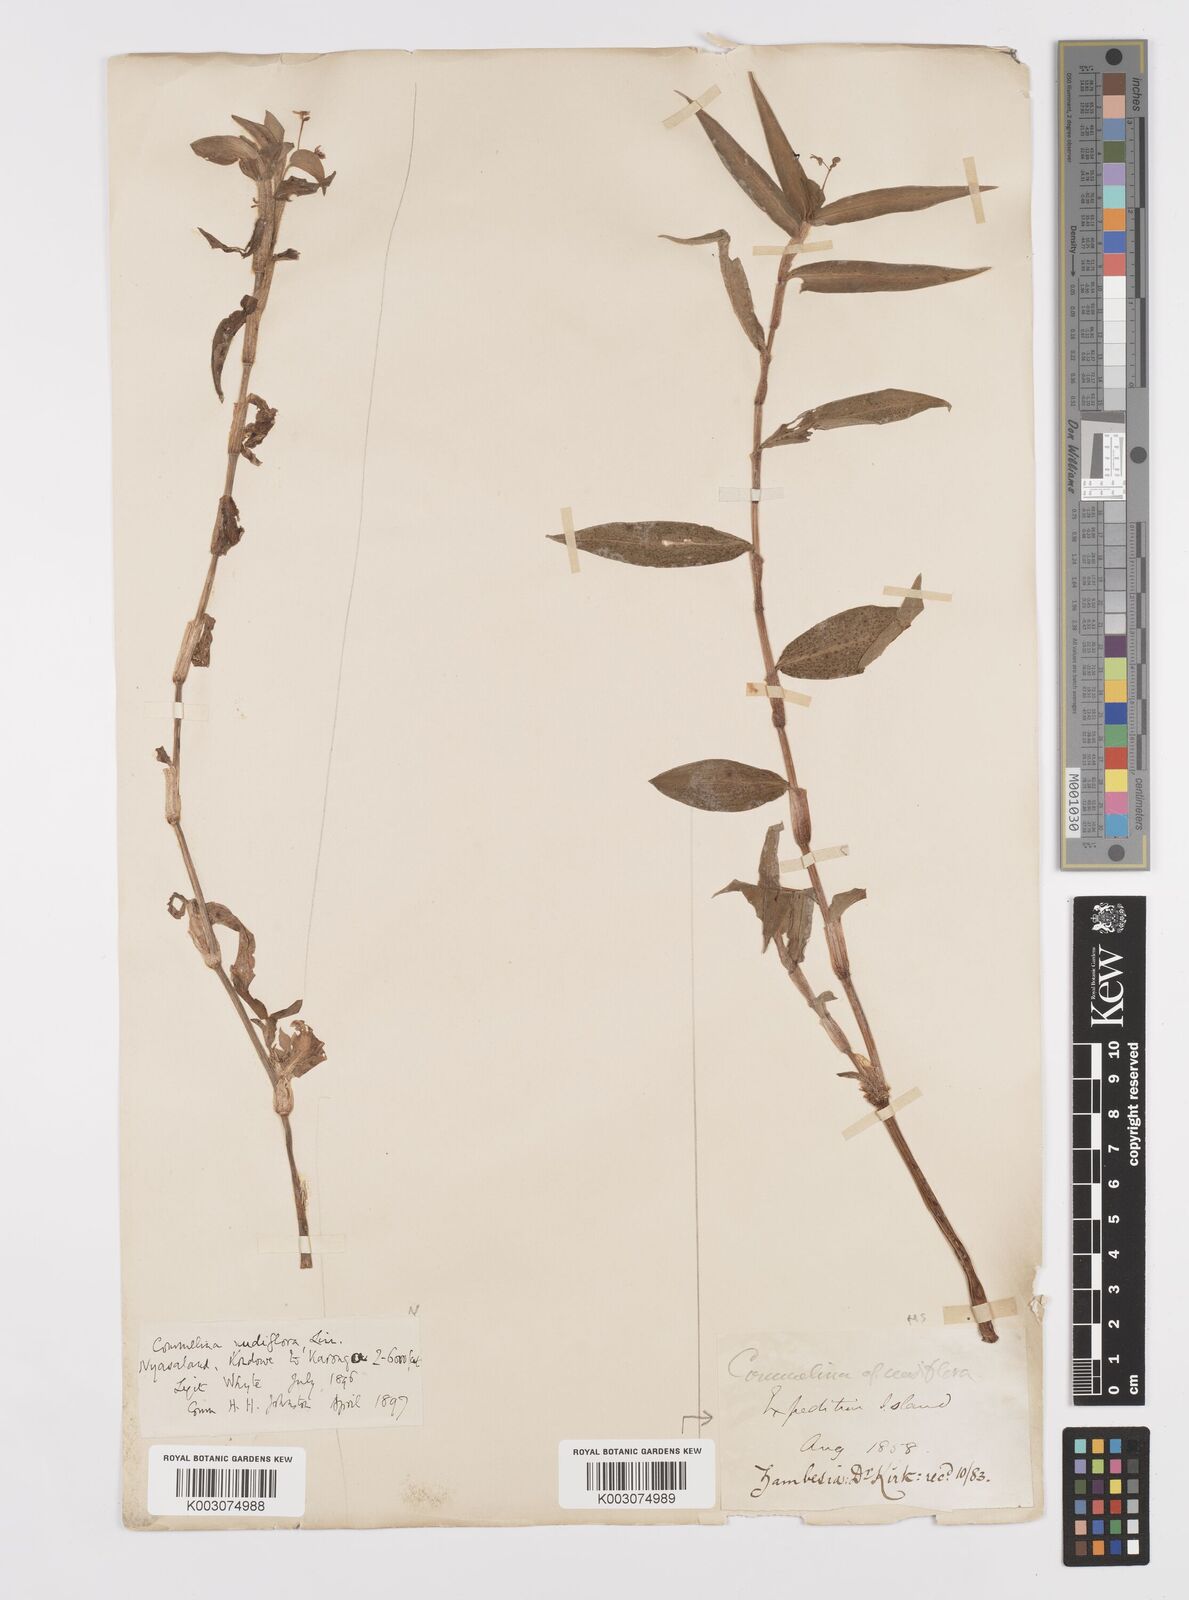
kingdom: Plantae
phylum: Tracheophyta
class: Liliopsida
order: Commelinales
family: Commelinaceae
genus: Commelina
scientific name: Commelina diffusa
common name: Climbing dayflower
